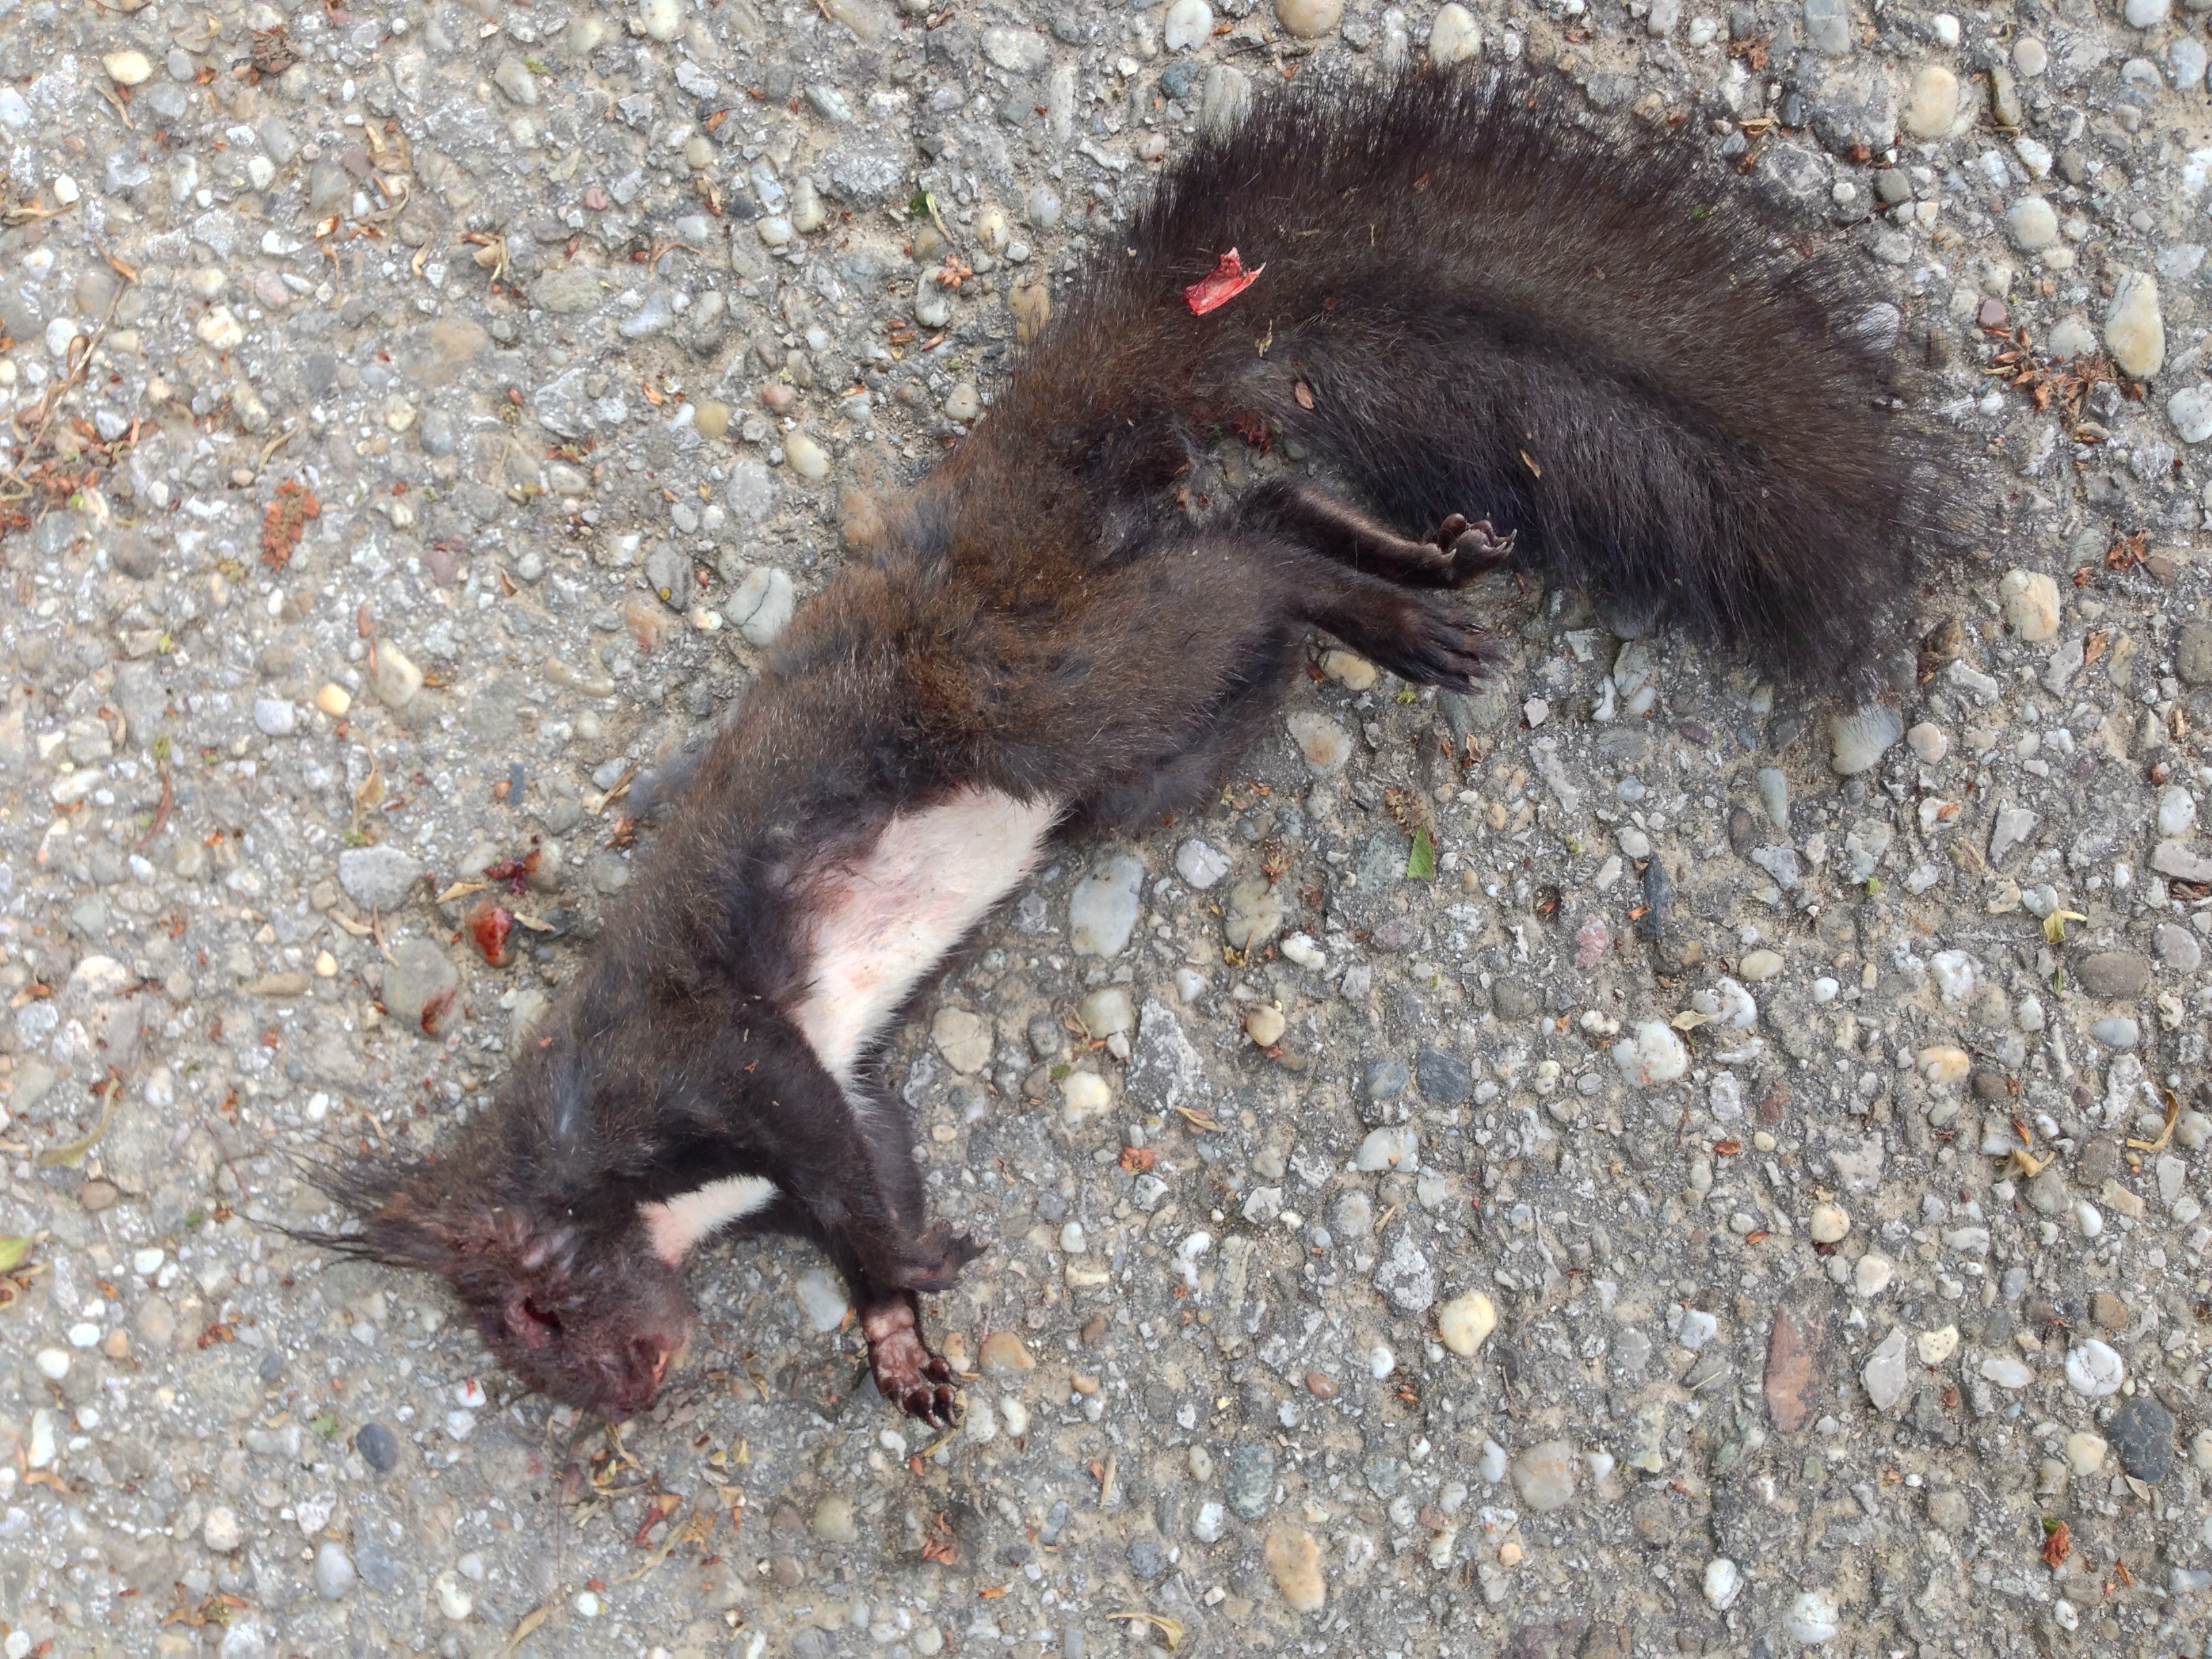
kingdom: Animalia
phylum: Chordata
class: Mammalia
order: Rodentia
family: Sciuridae
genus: Sciurus
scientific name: Sciurus vulgaris
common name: Eurasian red squirrel
